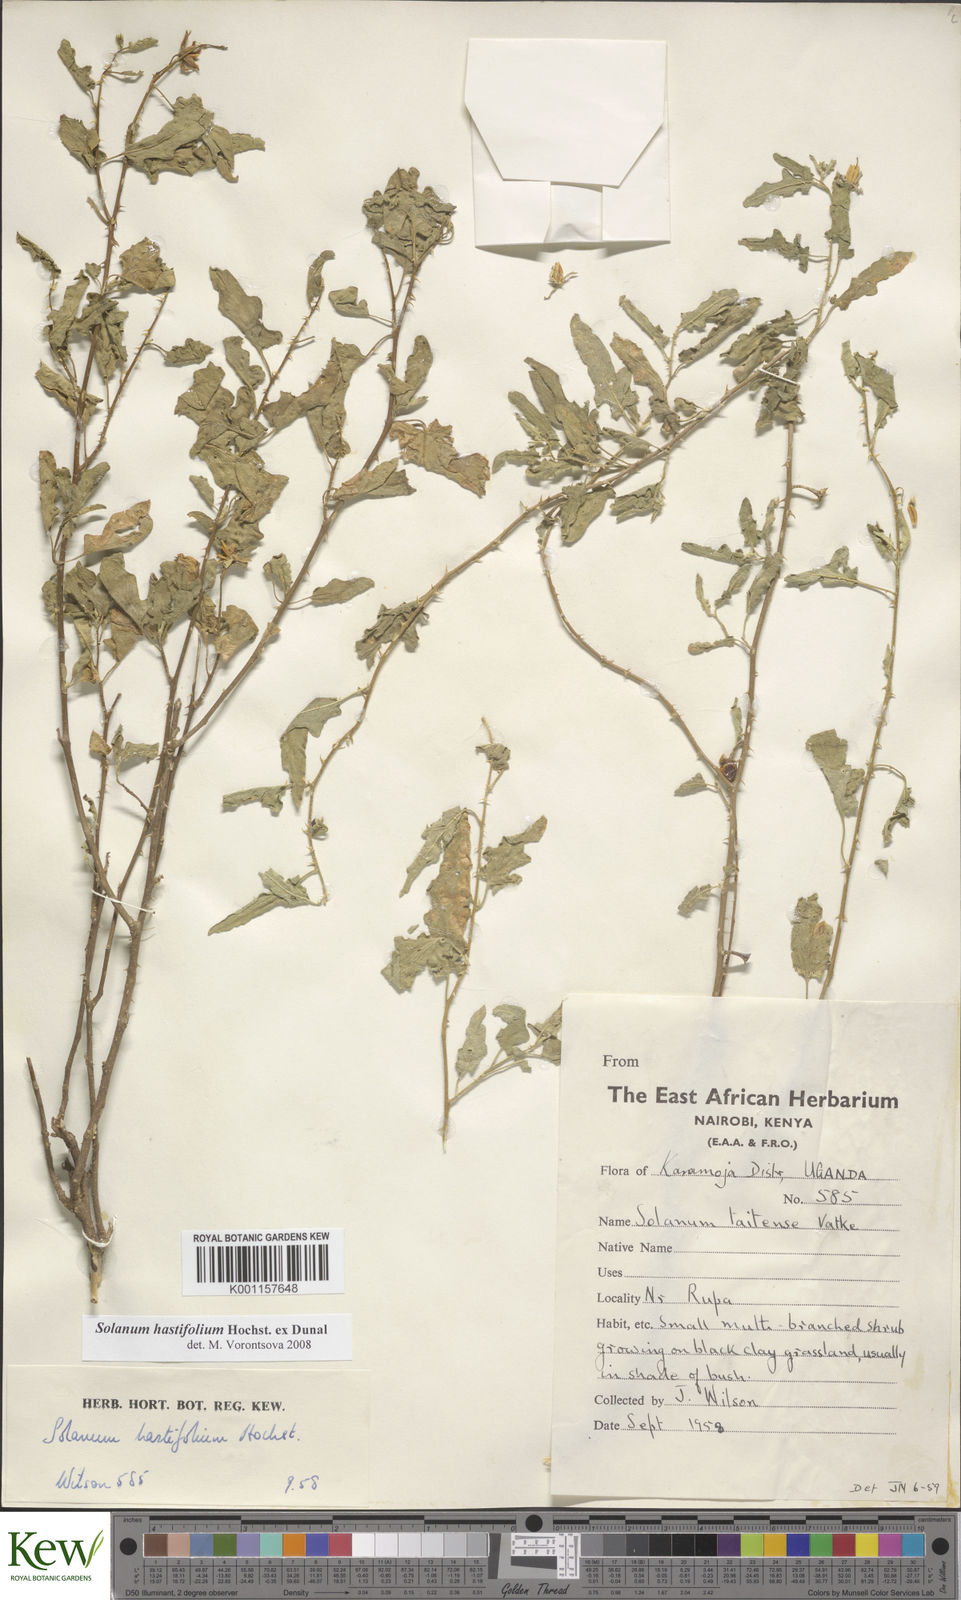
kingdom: Plantae
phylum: Tracheophyta
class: Magnoliopsida
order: Solanales
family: Solanaceae
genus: Solanum
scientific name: Solanum hastifolium
